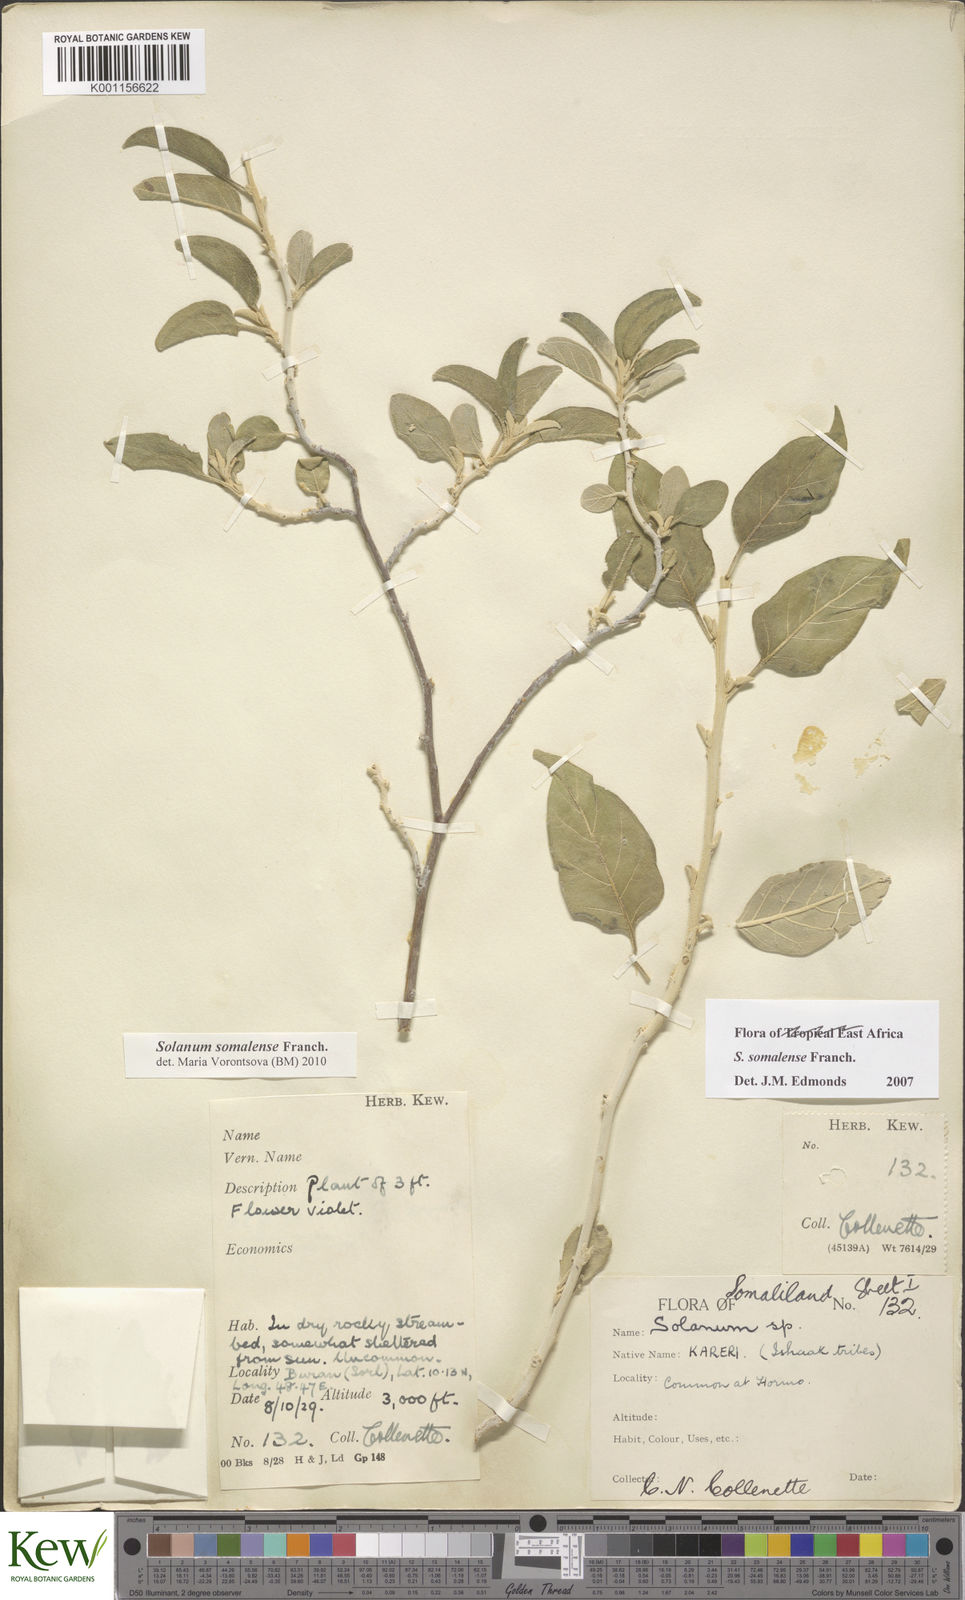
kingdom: Plantae
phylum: Tracheophyta
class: Magnoliopsida
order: Solanales
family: Solanaceae
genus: Solanum
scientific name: Solanum somalense
